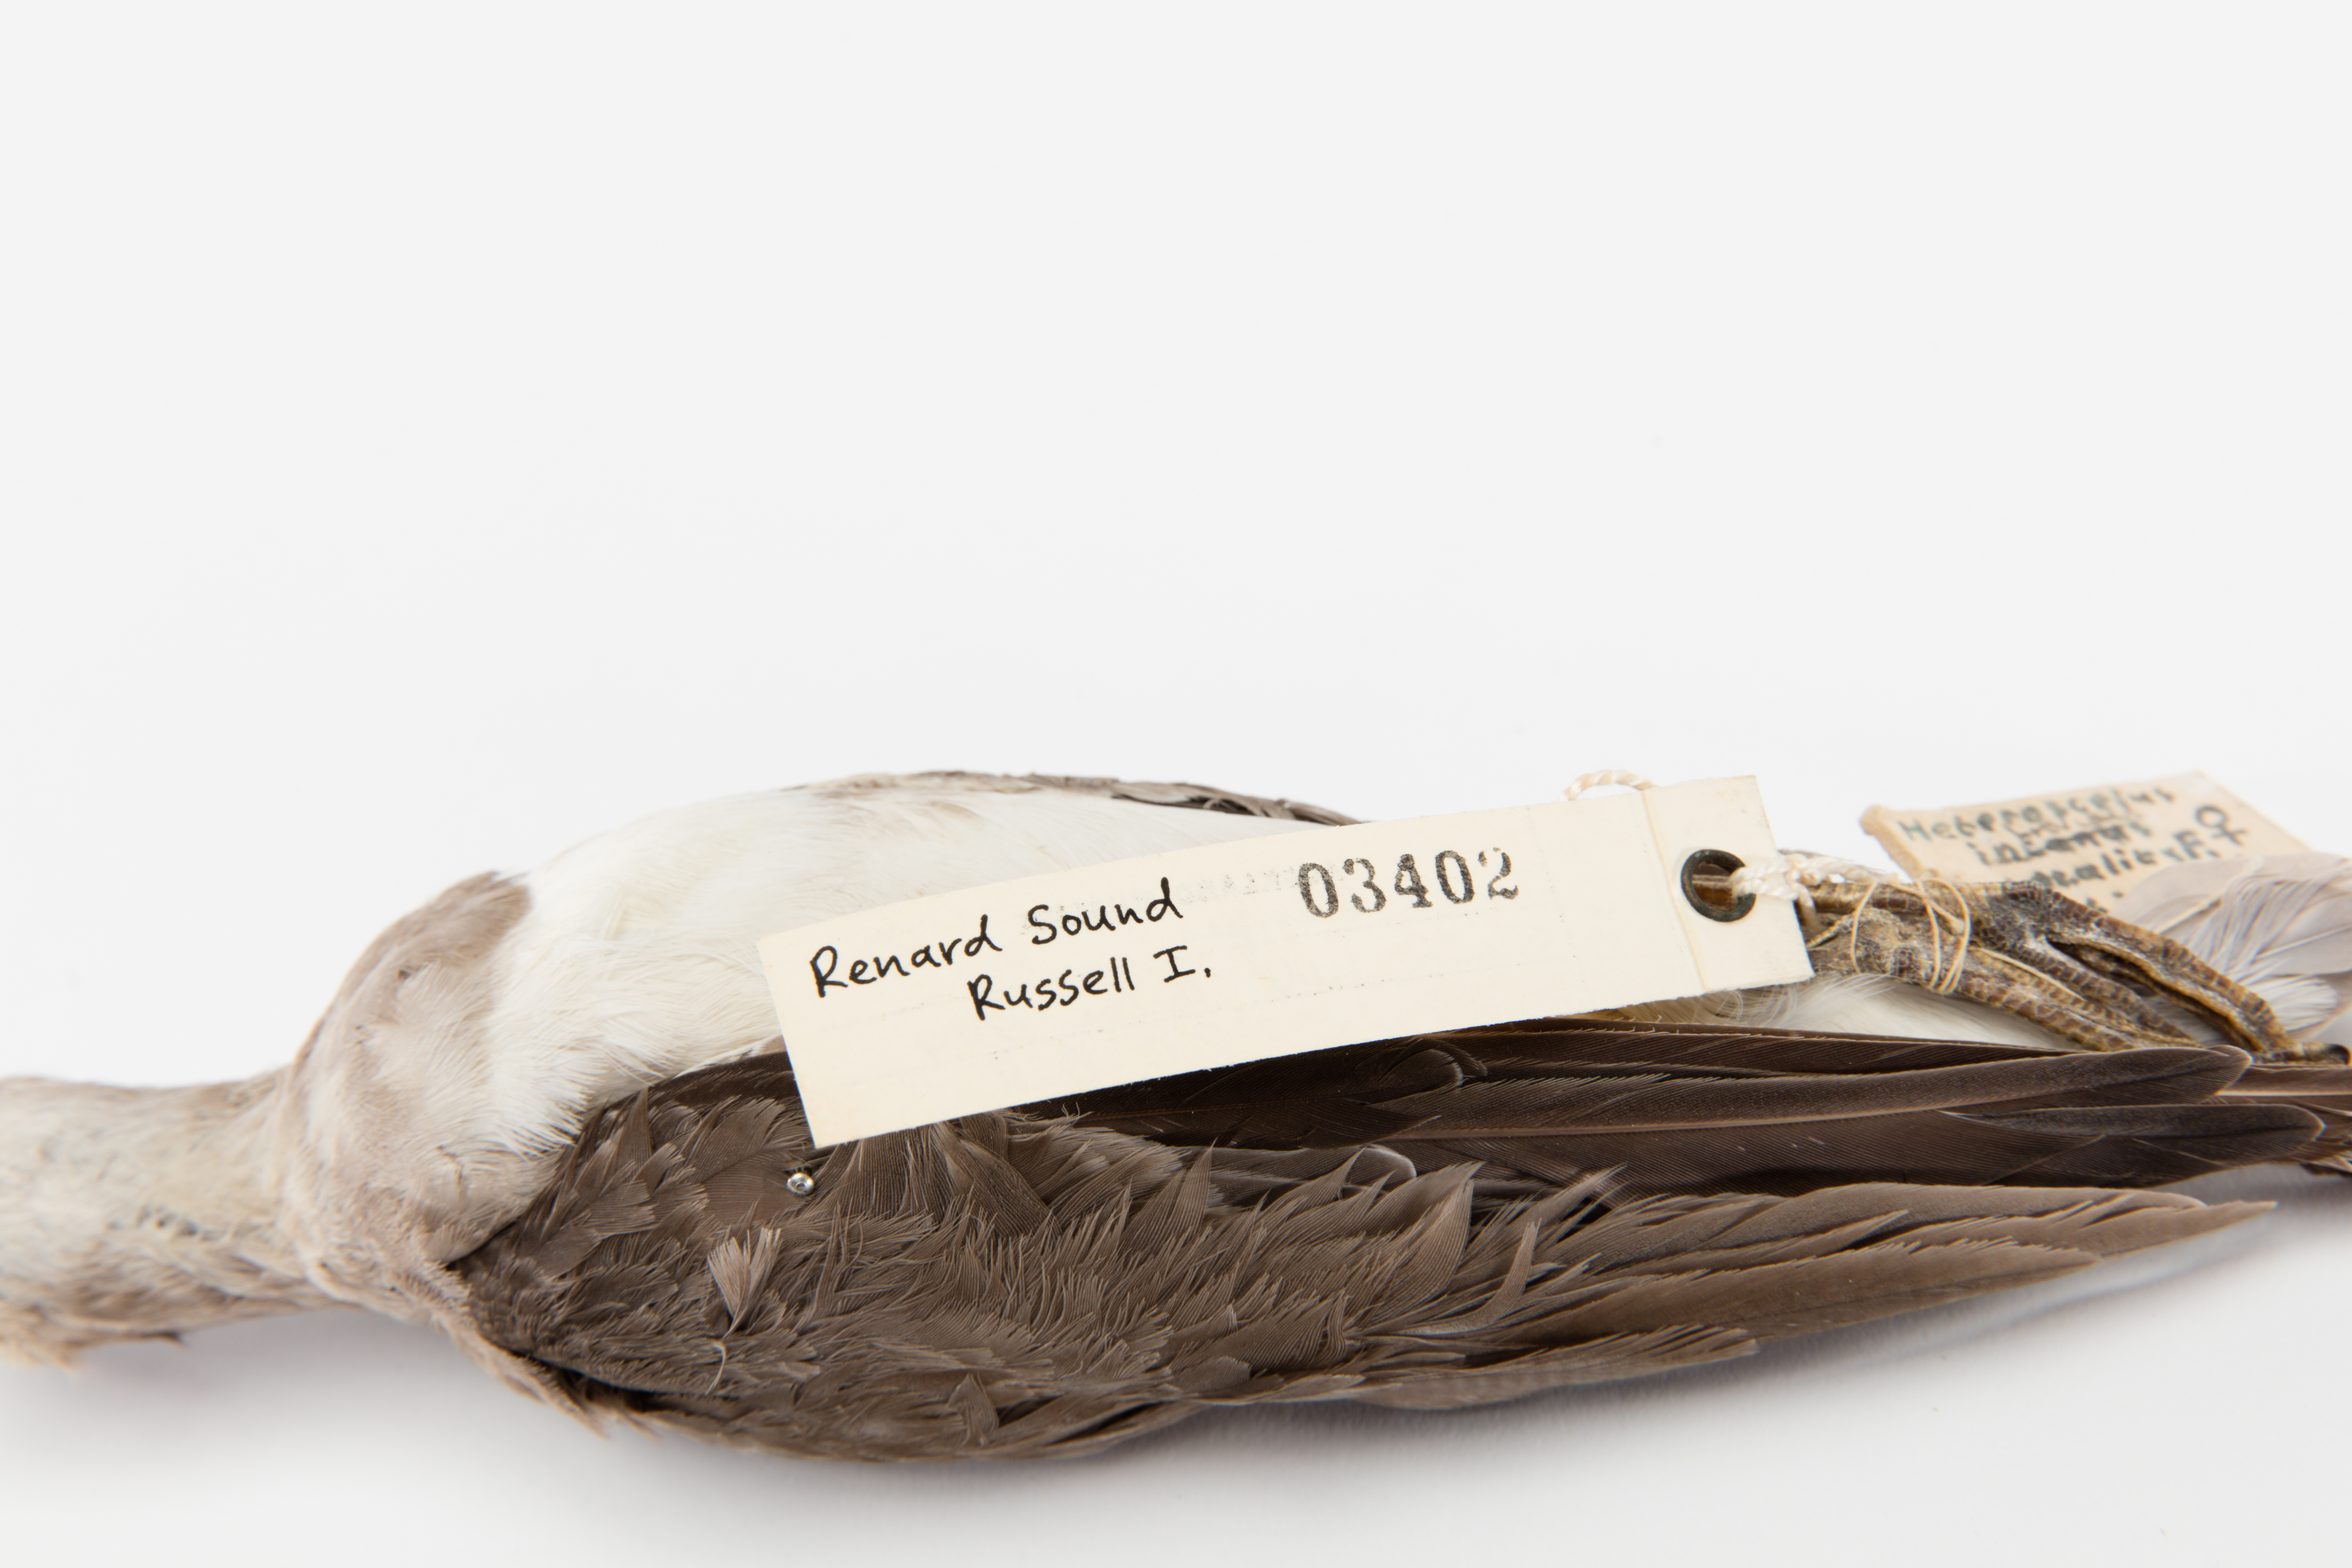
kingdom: Animalia
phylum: Chordata
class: Aves
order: Charadriiformes
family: Scolopacidae
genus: Tringa
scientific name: Tringa brevipes
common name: Grey-tailed tattler
